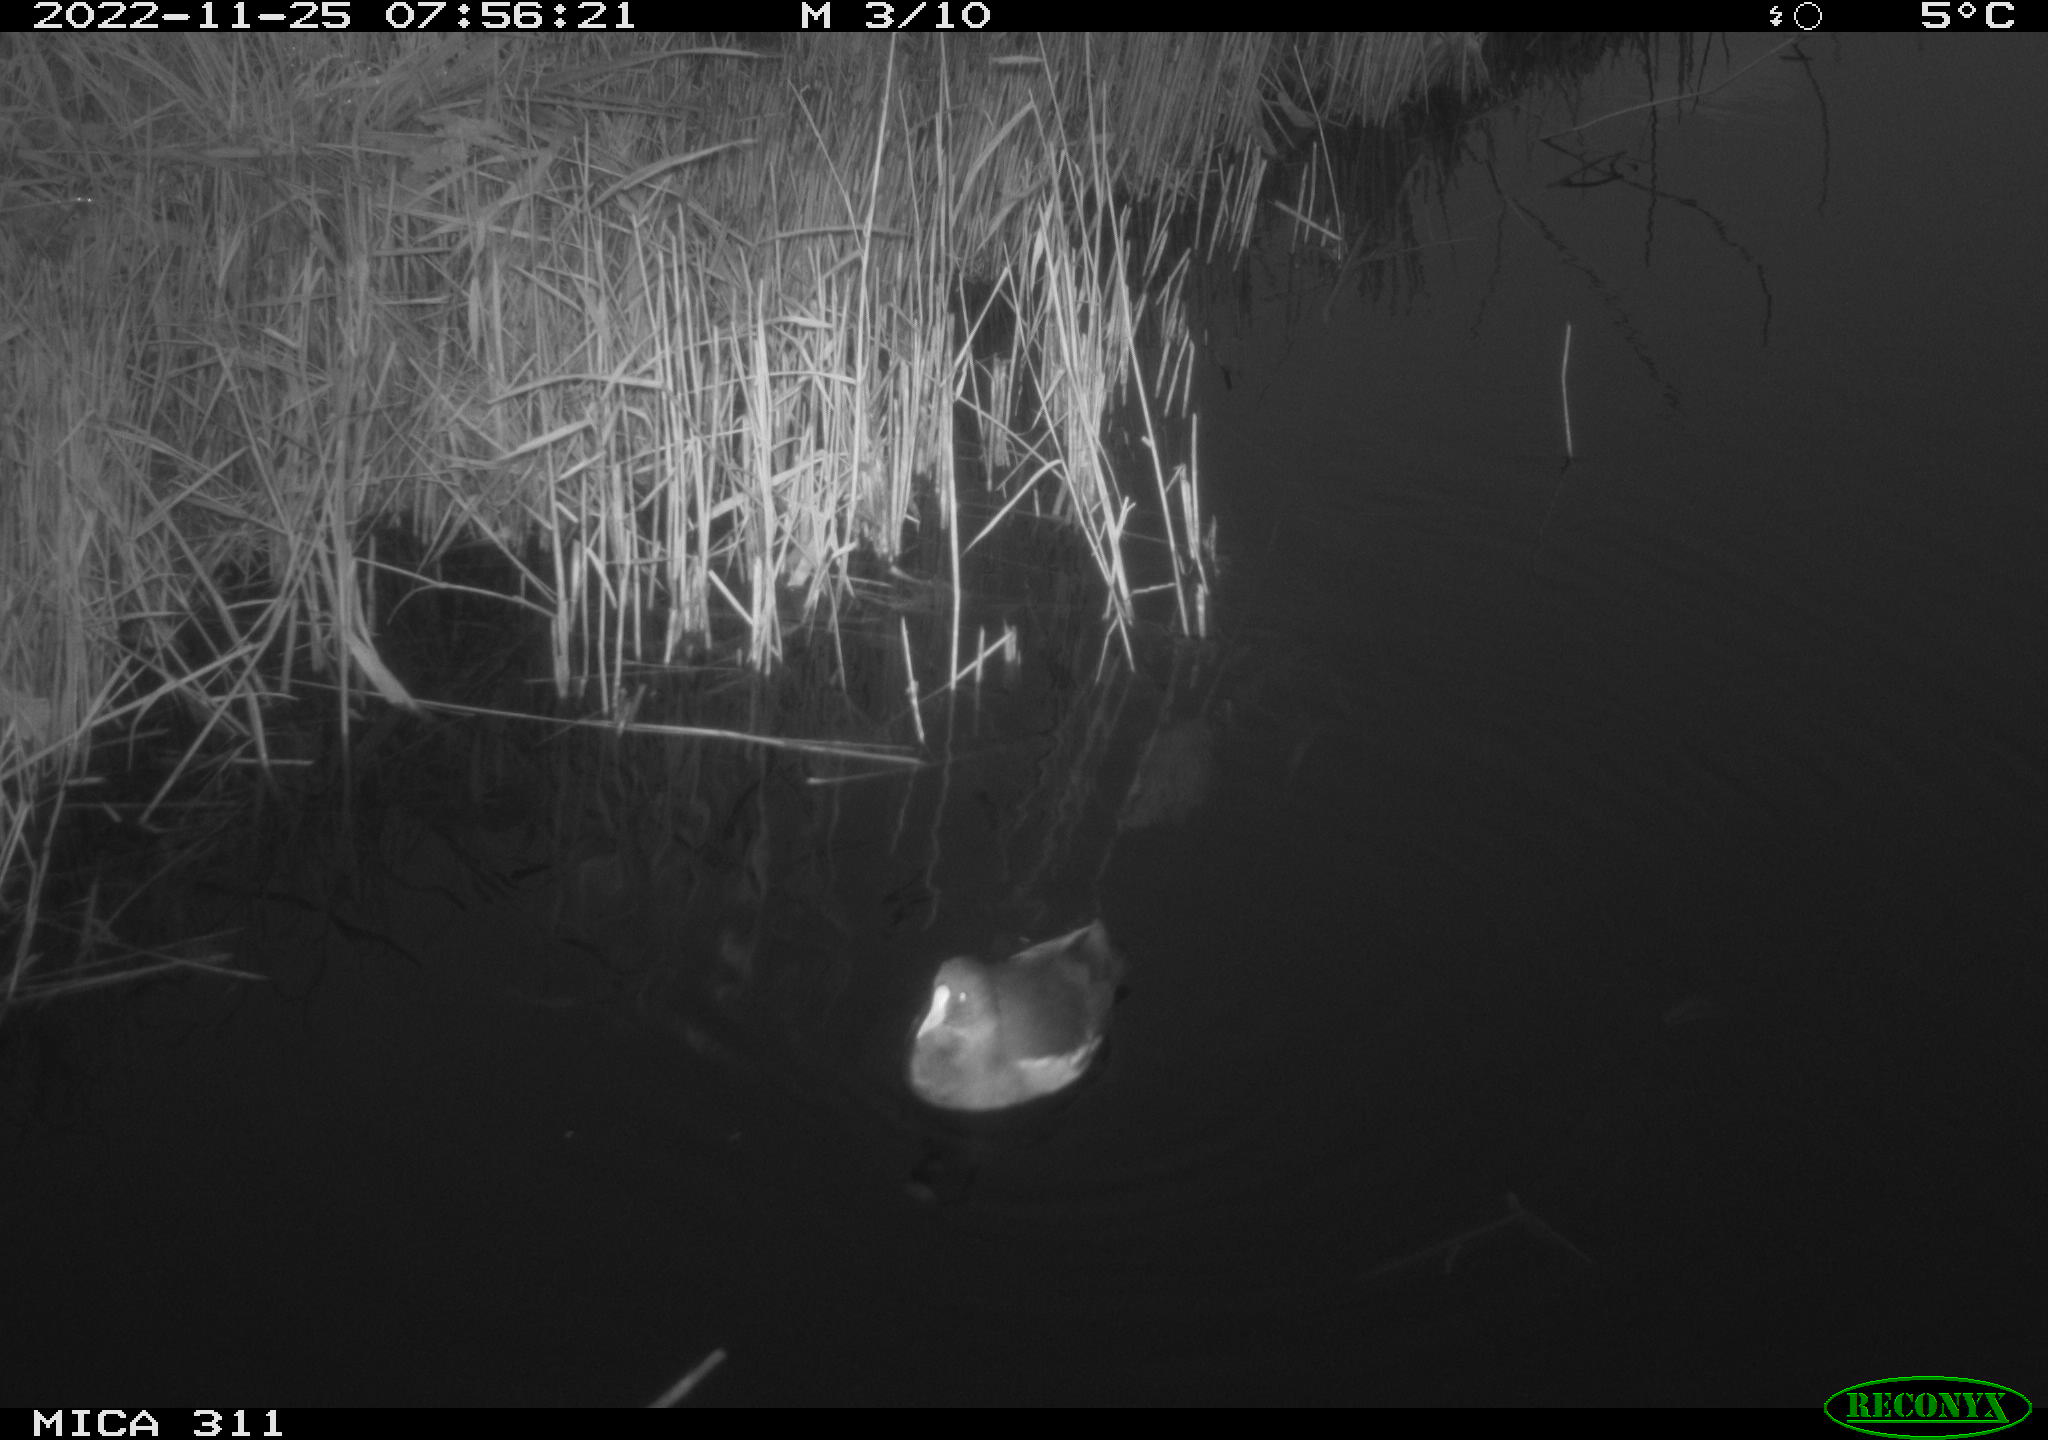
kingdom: Animalia
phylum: Chordata
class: Aves
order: Gruiformes
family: Rallidae
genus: Gallinula
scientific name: Gallinula chloropus
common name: Common moorhen
